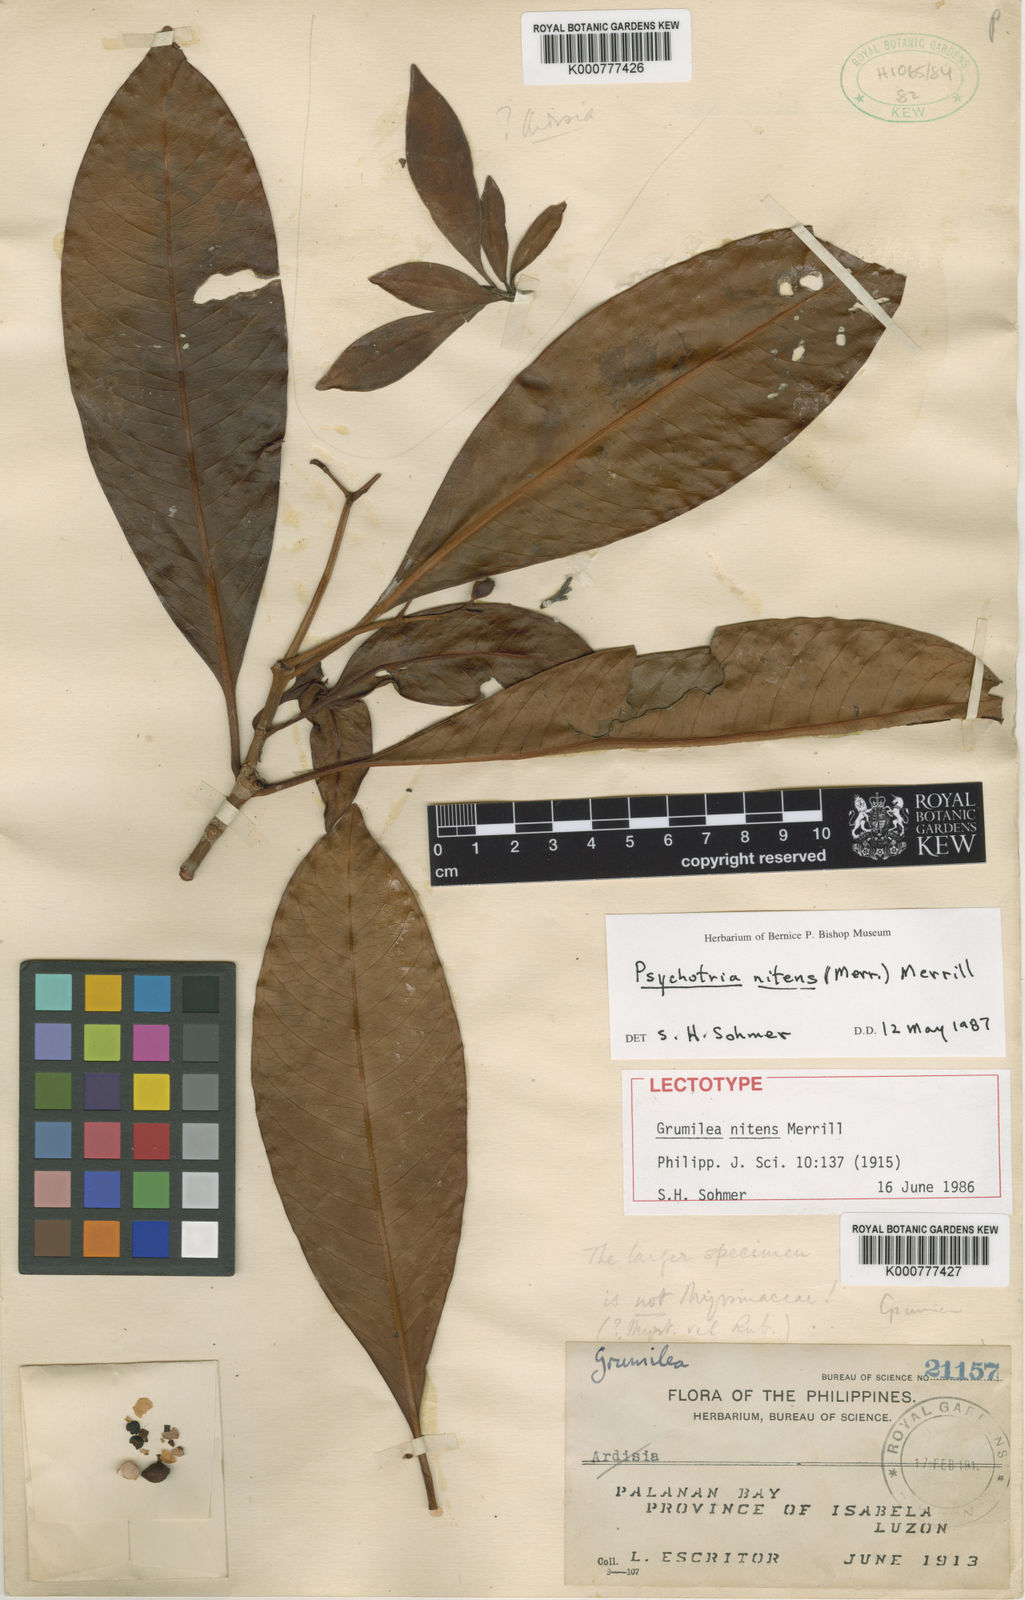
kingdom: Plantae
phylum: Tracheophyta
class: Magnoliopsida
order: Gentianales
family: Rubiaceae
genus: Psychotria
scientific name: Psychotria nitens
